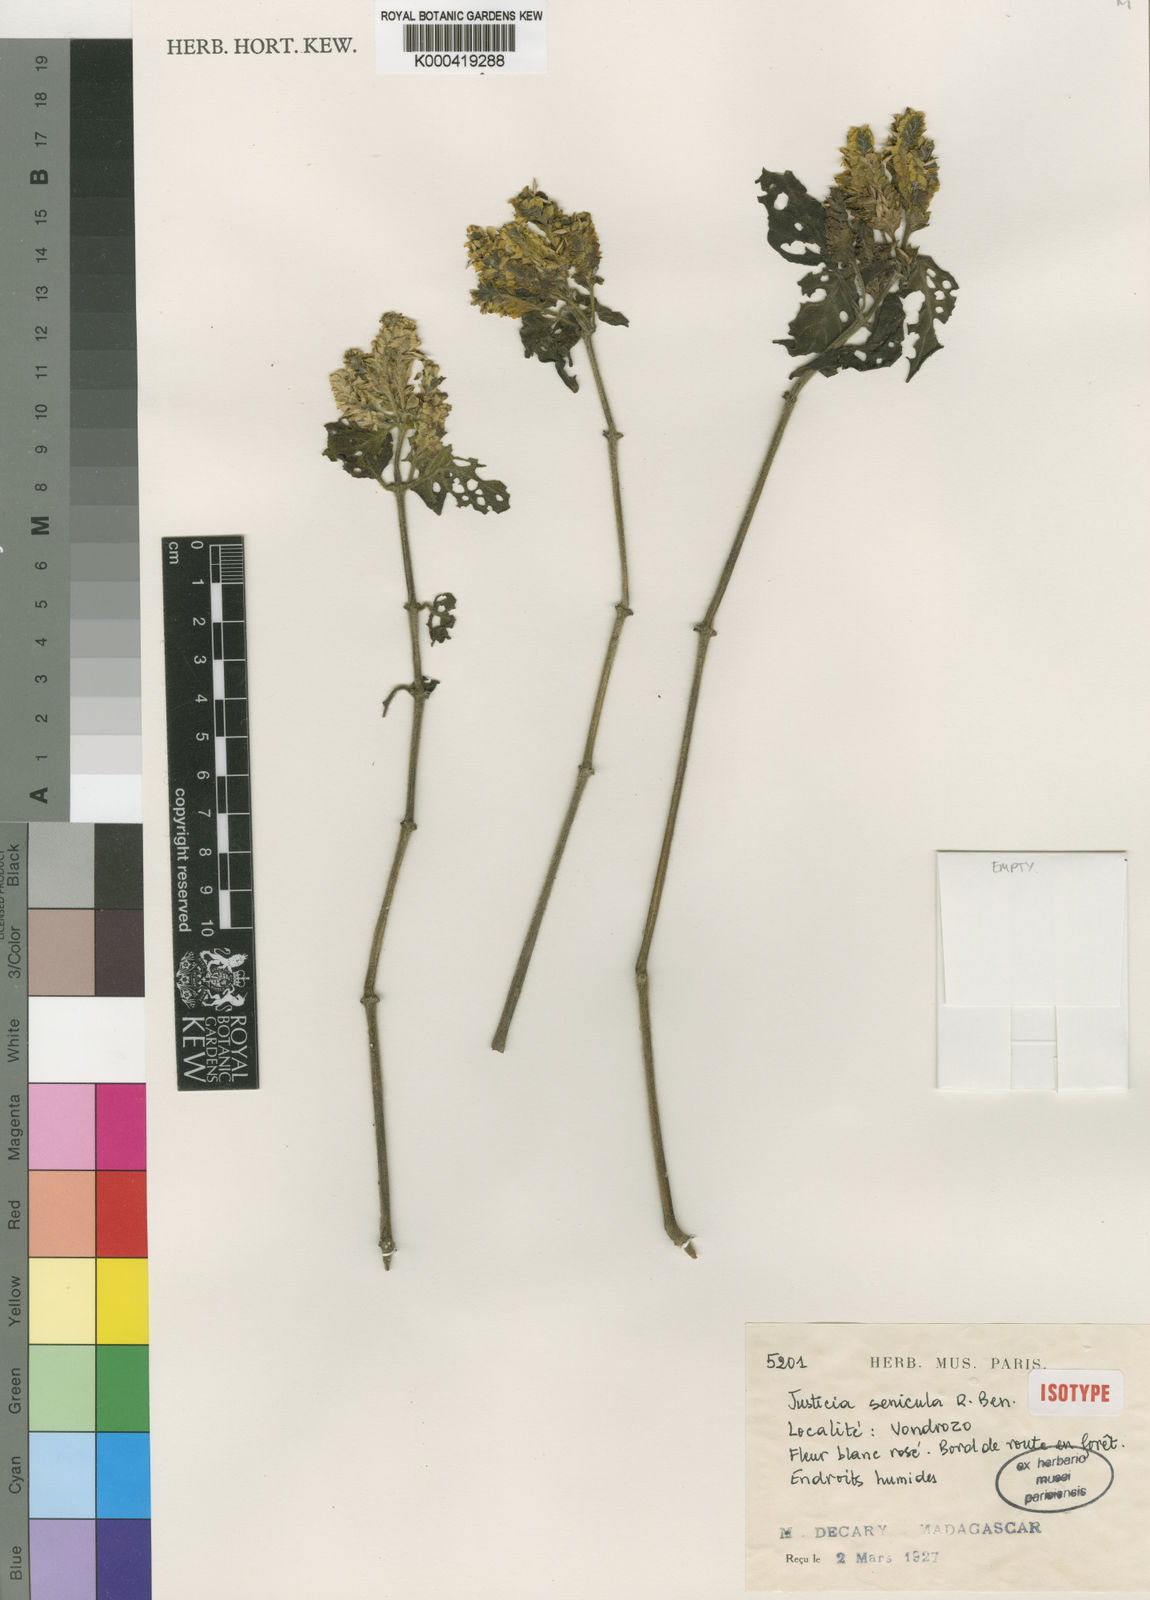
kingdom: Plantae
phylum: Tracheophyta
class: Magnoliopsida
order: Lamiales
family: Acanthaceae
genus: Justicia
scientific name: Justicia senicula
